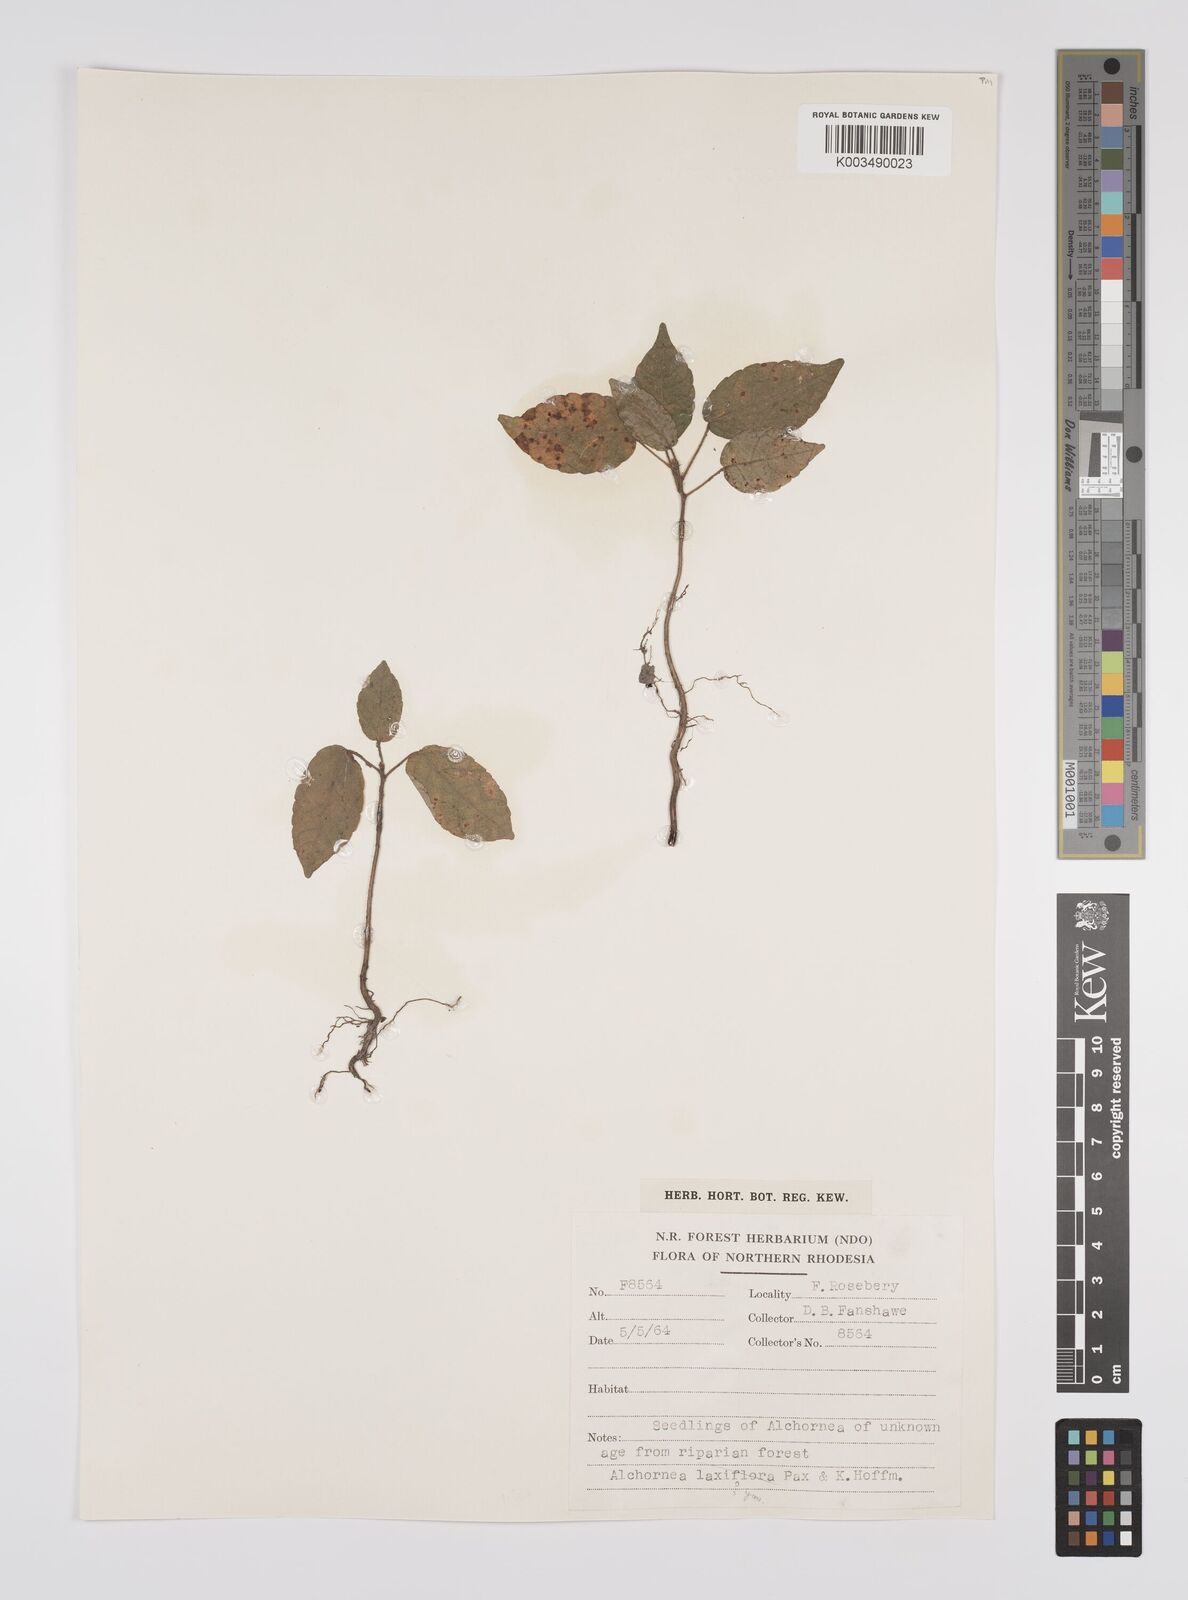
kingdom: Plantae
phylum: Tracheophyta
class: Magnoliopsida
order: Malpighiales
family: Euphorbiaceae
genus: Alchornea
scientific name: Alchornea yambuyaensis
